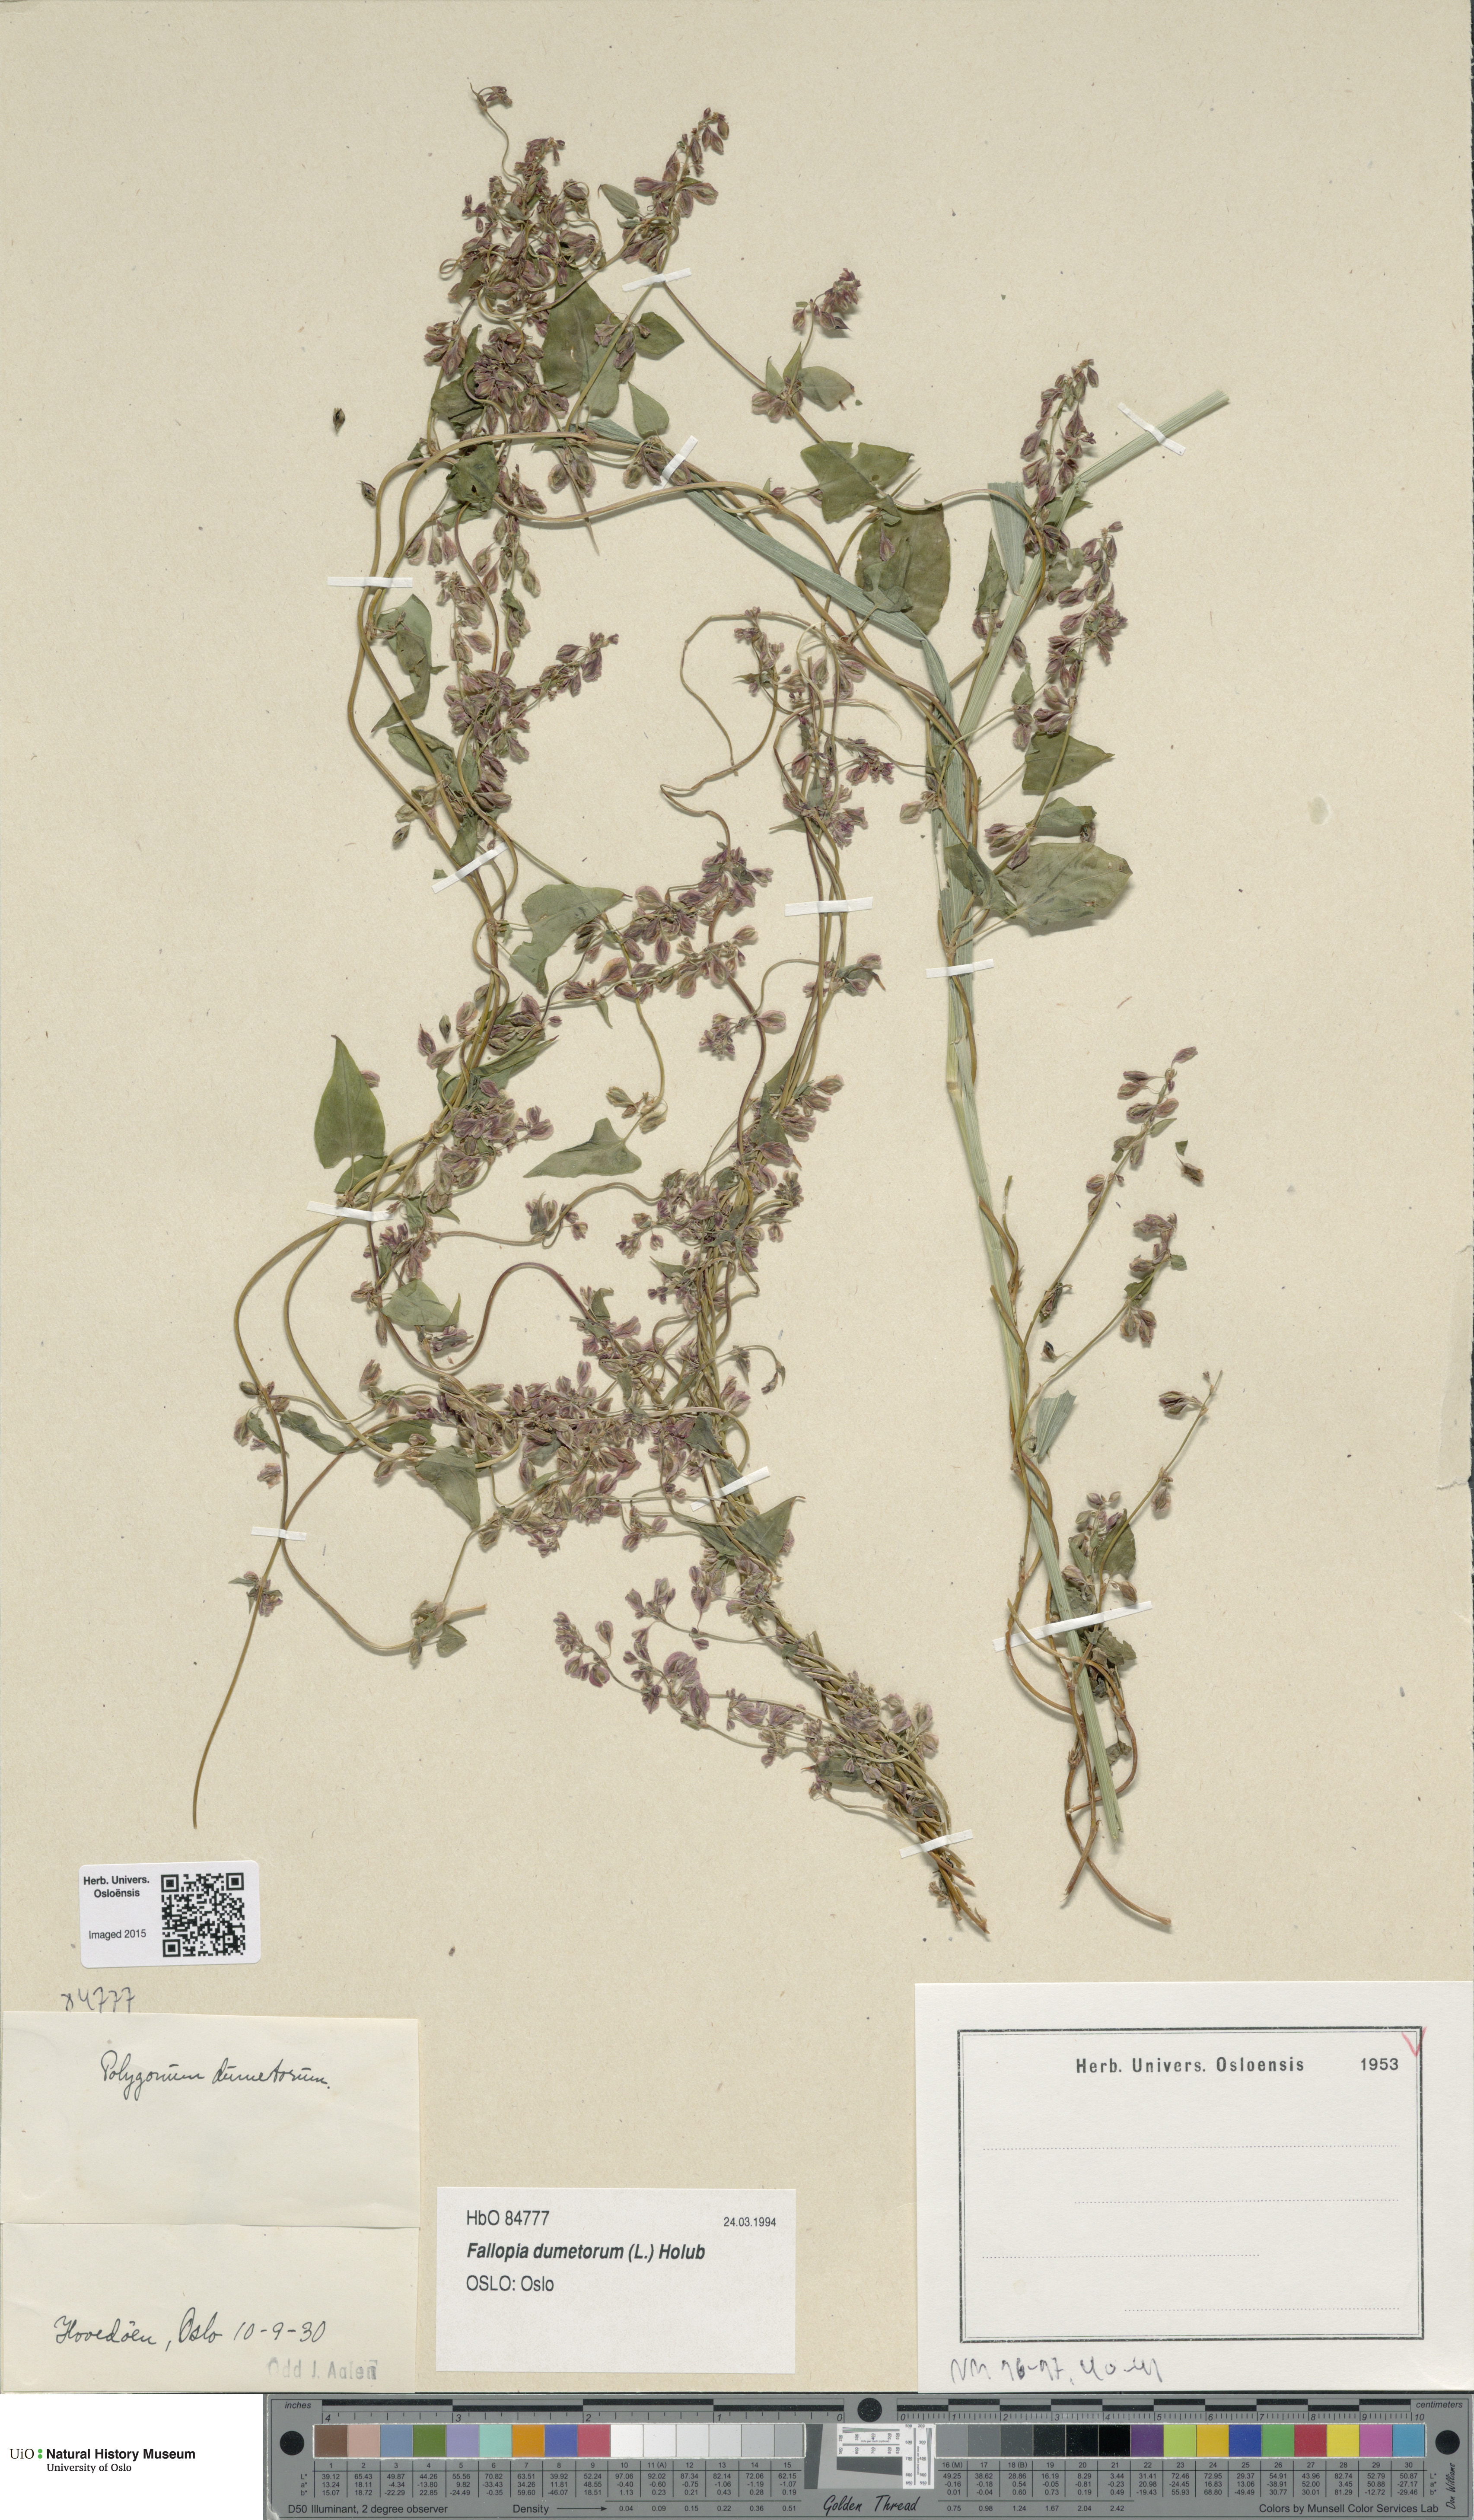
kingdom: Plantae
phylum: Tracheophyta
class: Magnoliopsida
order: Caryophyllales
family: Polygonaceae
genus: Fallopia
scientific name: Fallopia dumetorum
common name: Copse-bindweed
